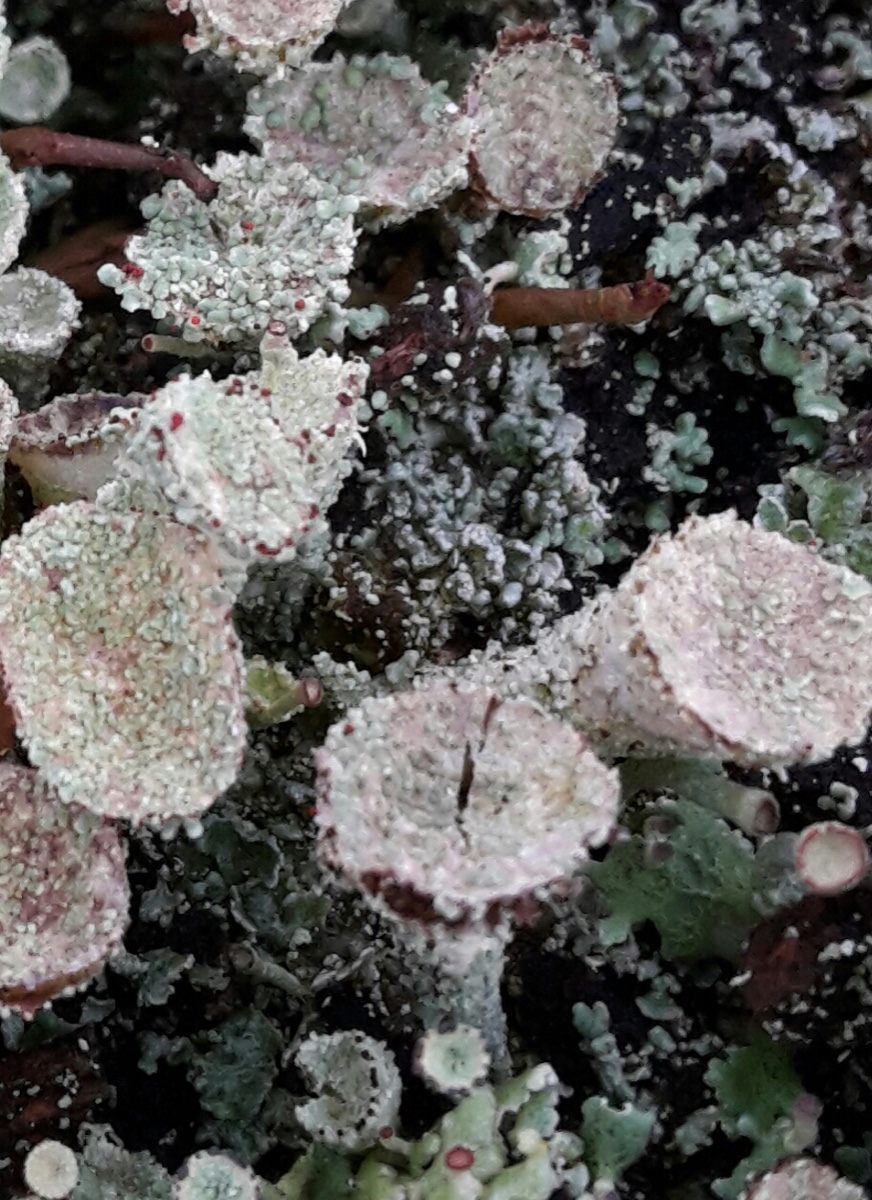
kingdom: Fungi
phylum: Ascomycota
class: Lecanoromycetes
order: Lecanorales
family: Cladoniaceae
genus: Cladonia
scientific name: Cladonia pyxidata
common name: tragt-bægerlav
